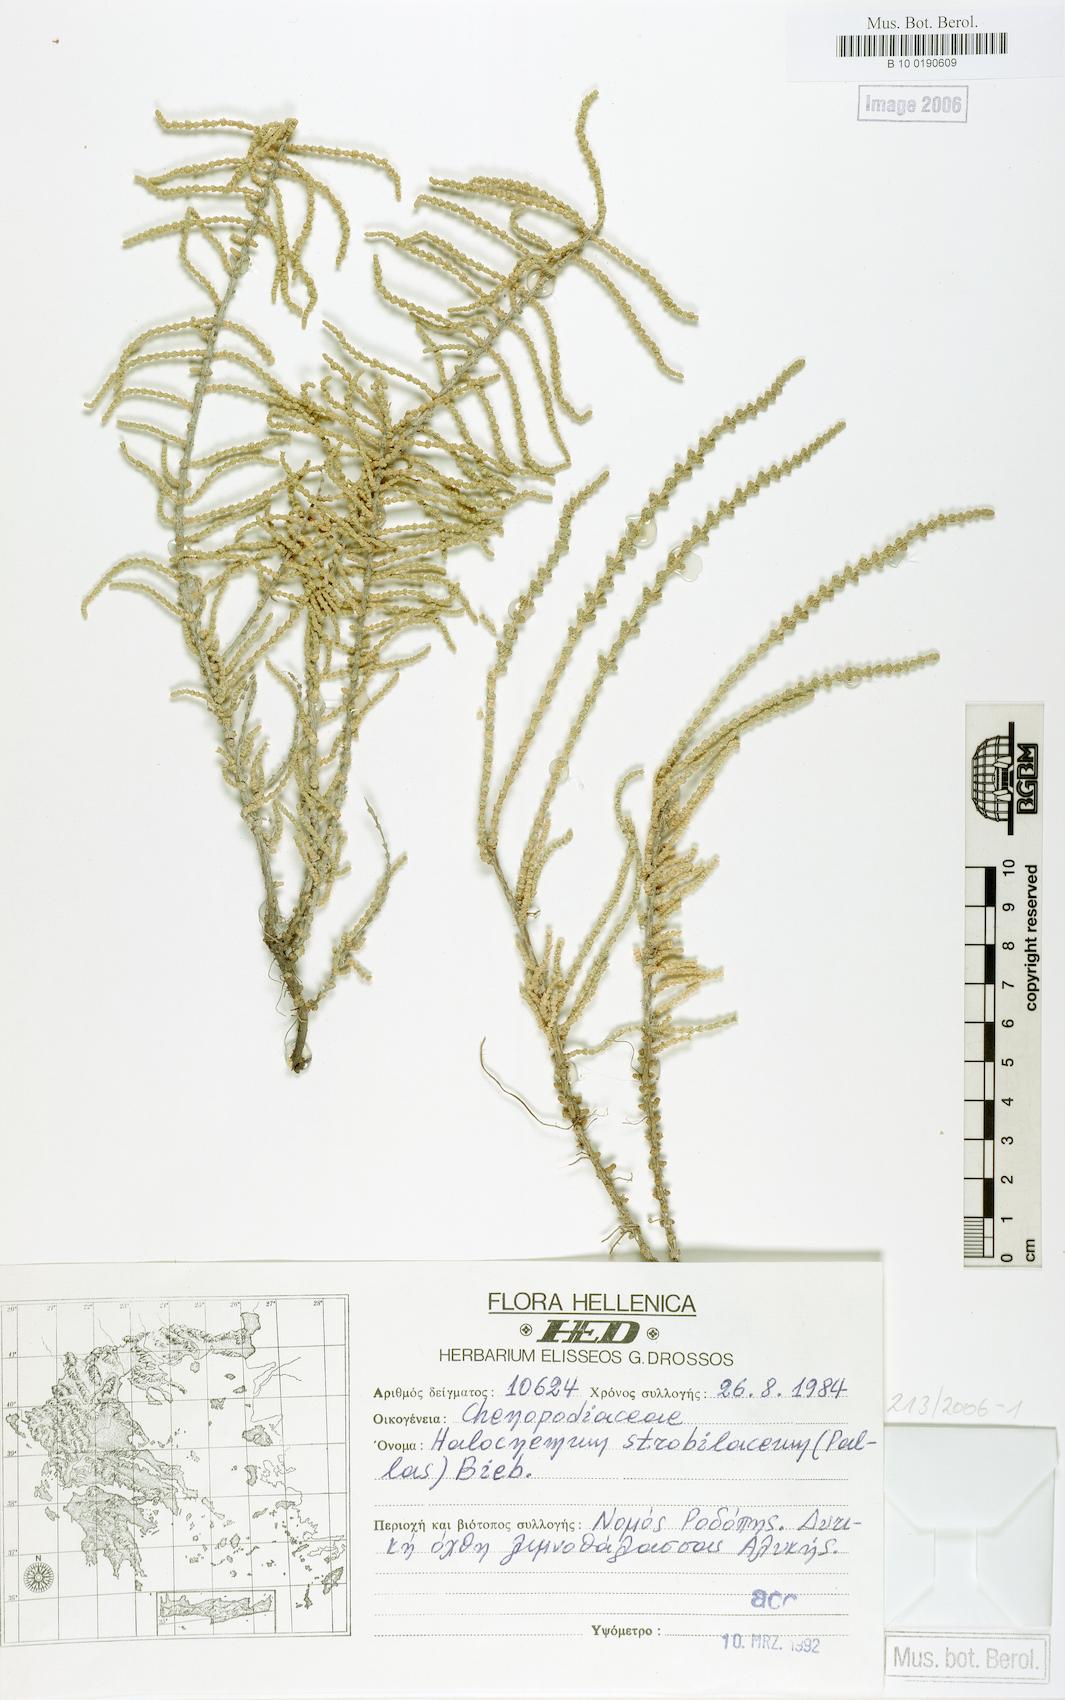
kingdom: Plantae
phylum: Tracheophyta
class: Magnoliopsida
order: Caryophyllales
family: Amaranthaceae
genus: Halocnemum
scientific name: Halocnemum strobilaceum
